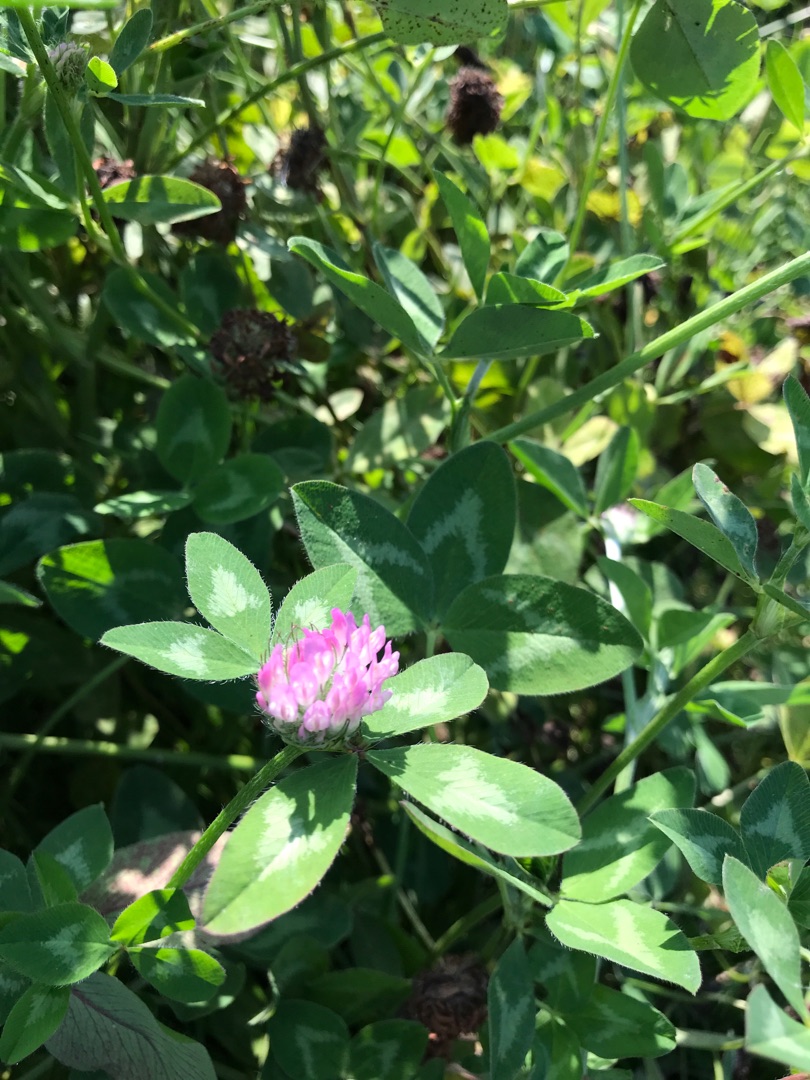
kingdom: Plantae
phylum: Tracheophyta
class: Magnoliopsida
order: Fabales
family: Fabaceae
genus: Trifolium
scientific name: Trifolium pratense
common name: Rød-kløver
